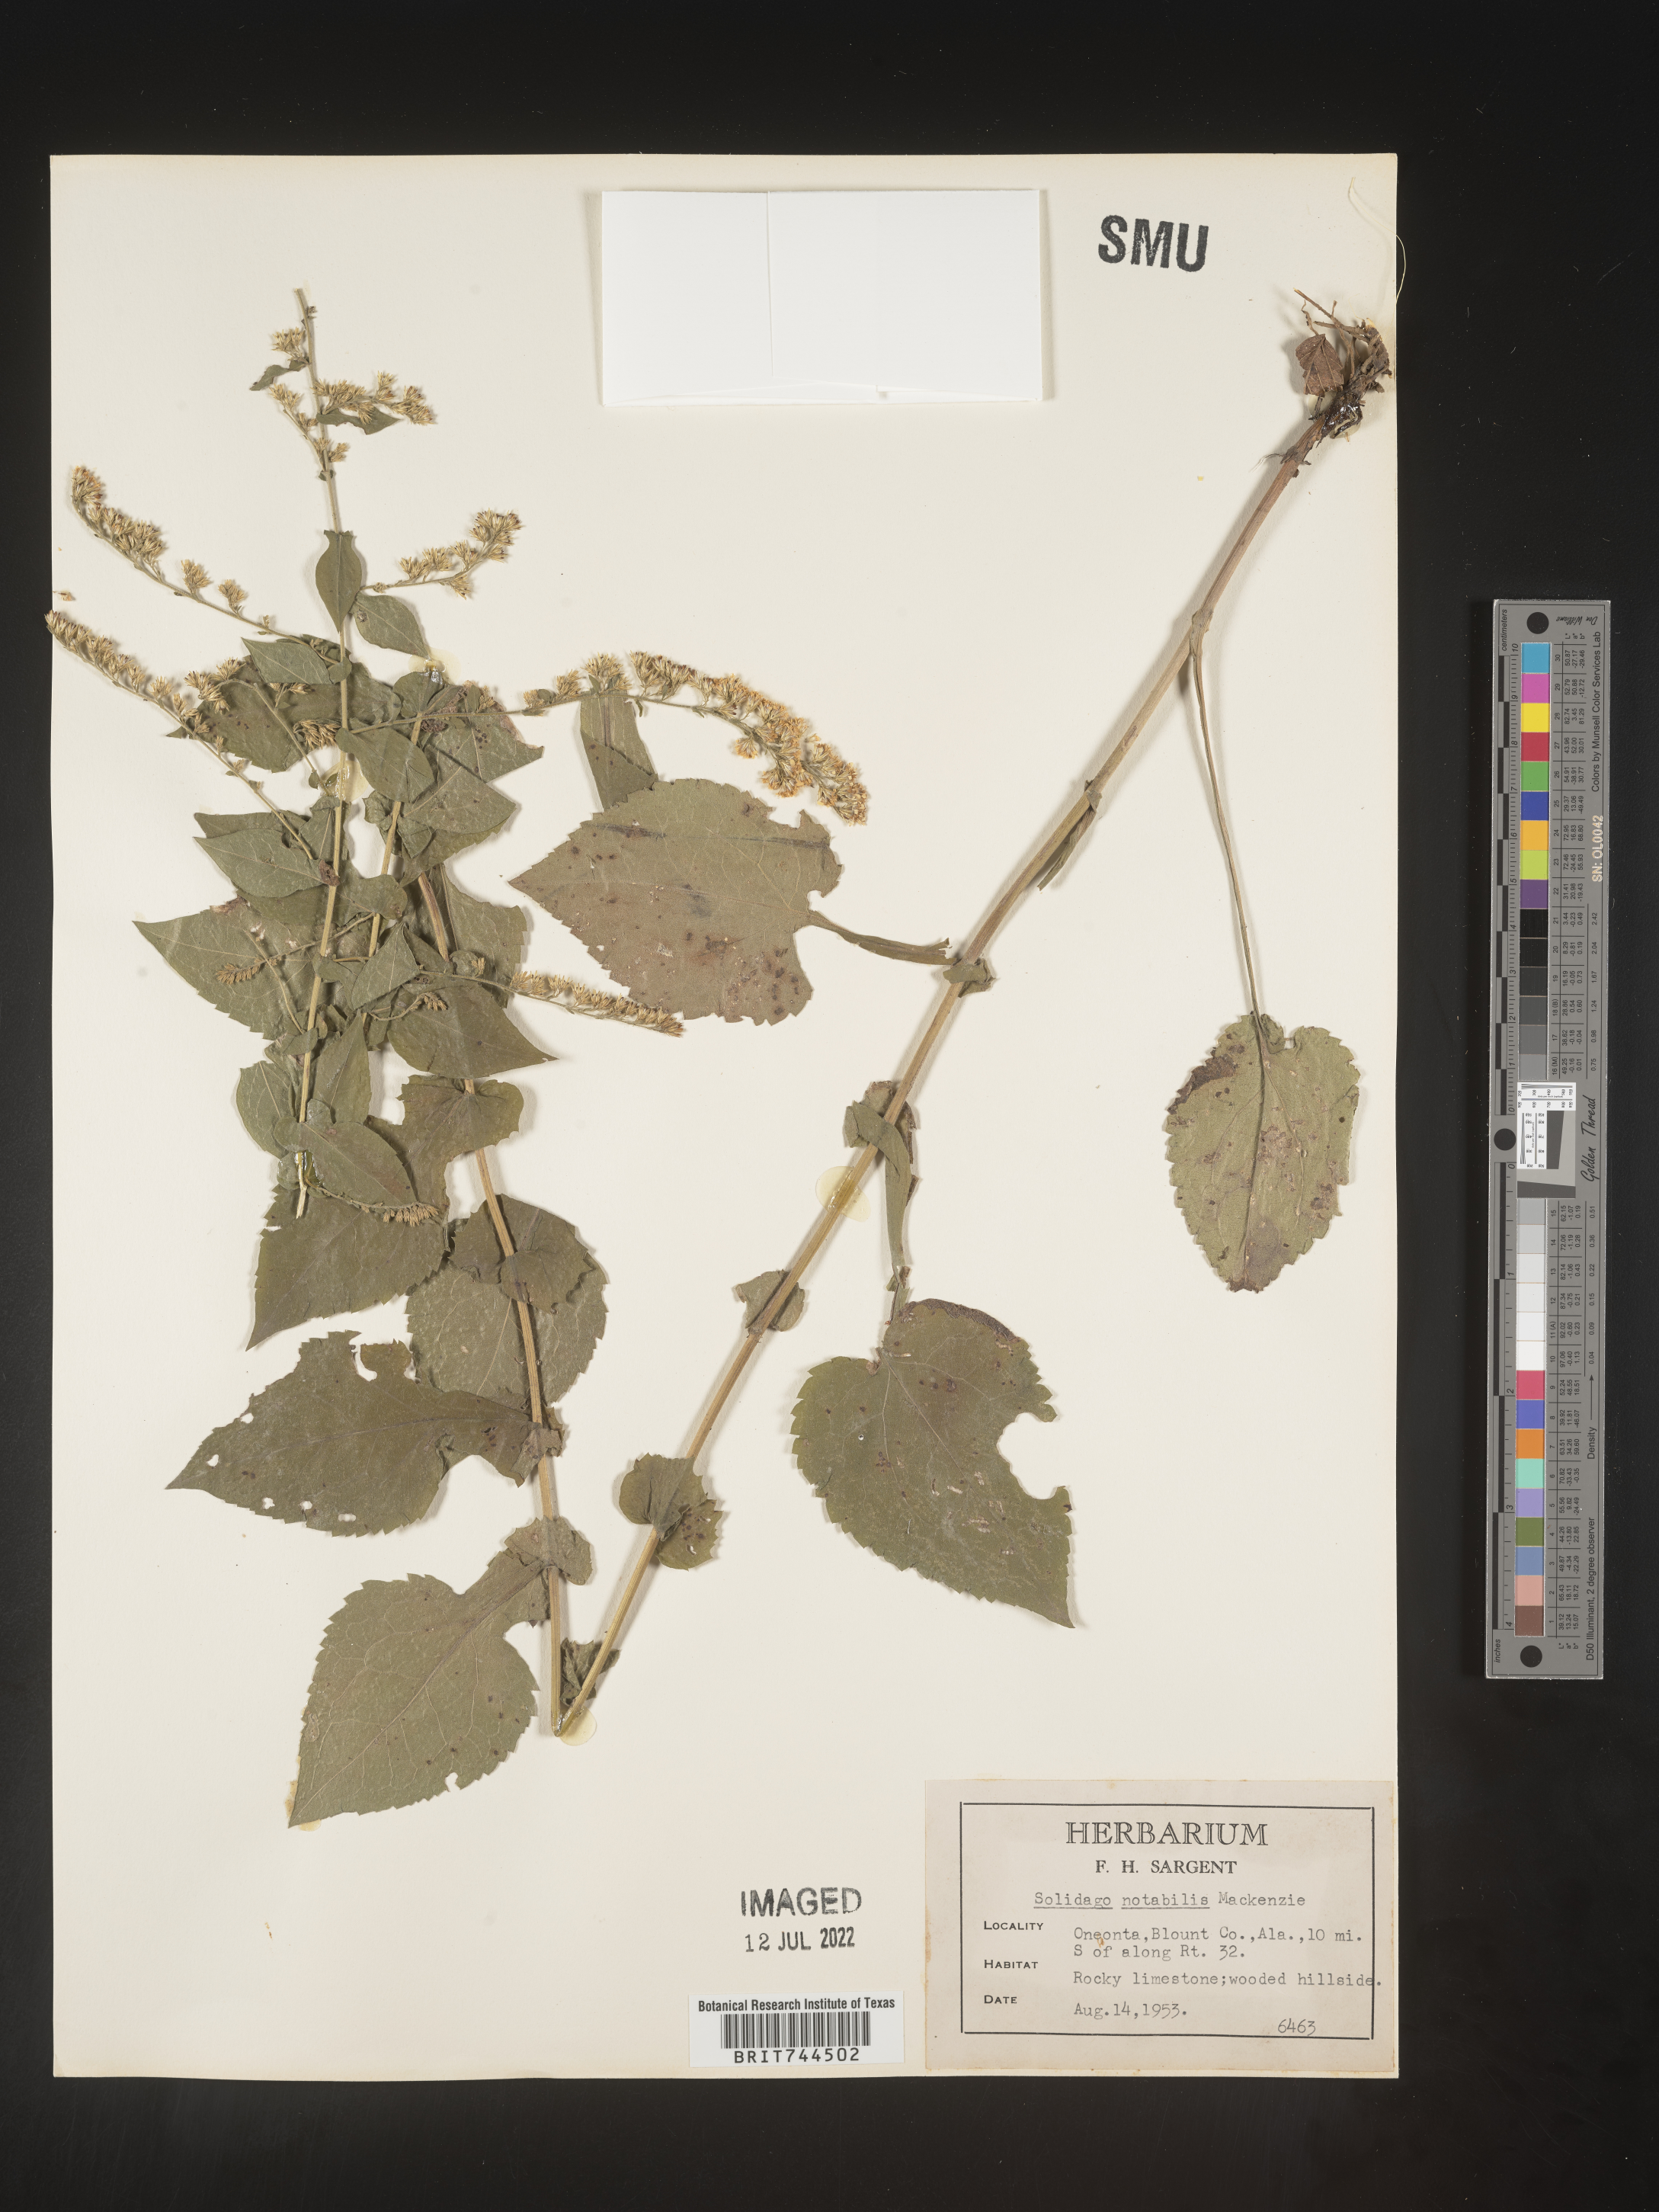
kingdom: Plantae
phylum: Tracheophyta
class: Magnoliopsida
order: Asterales
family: Asteraceae
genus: Solidago
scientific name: Solidago auriculata
